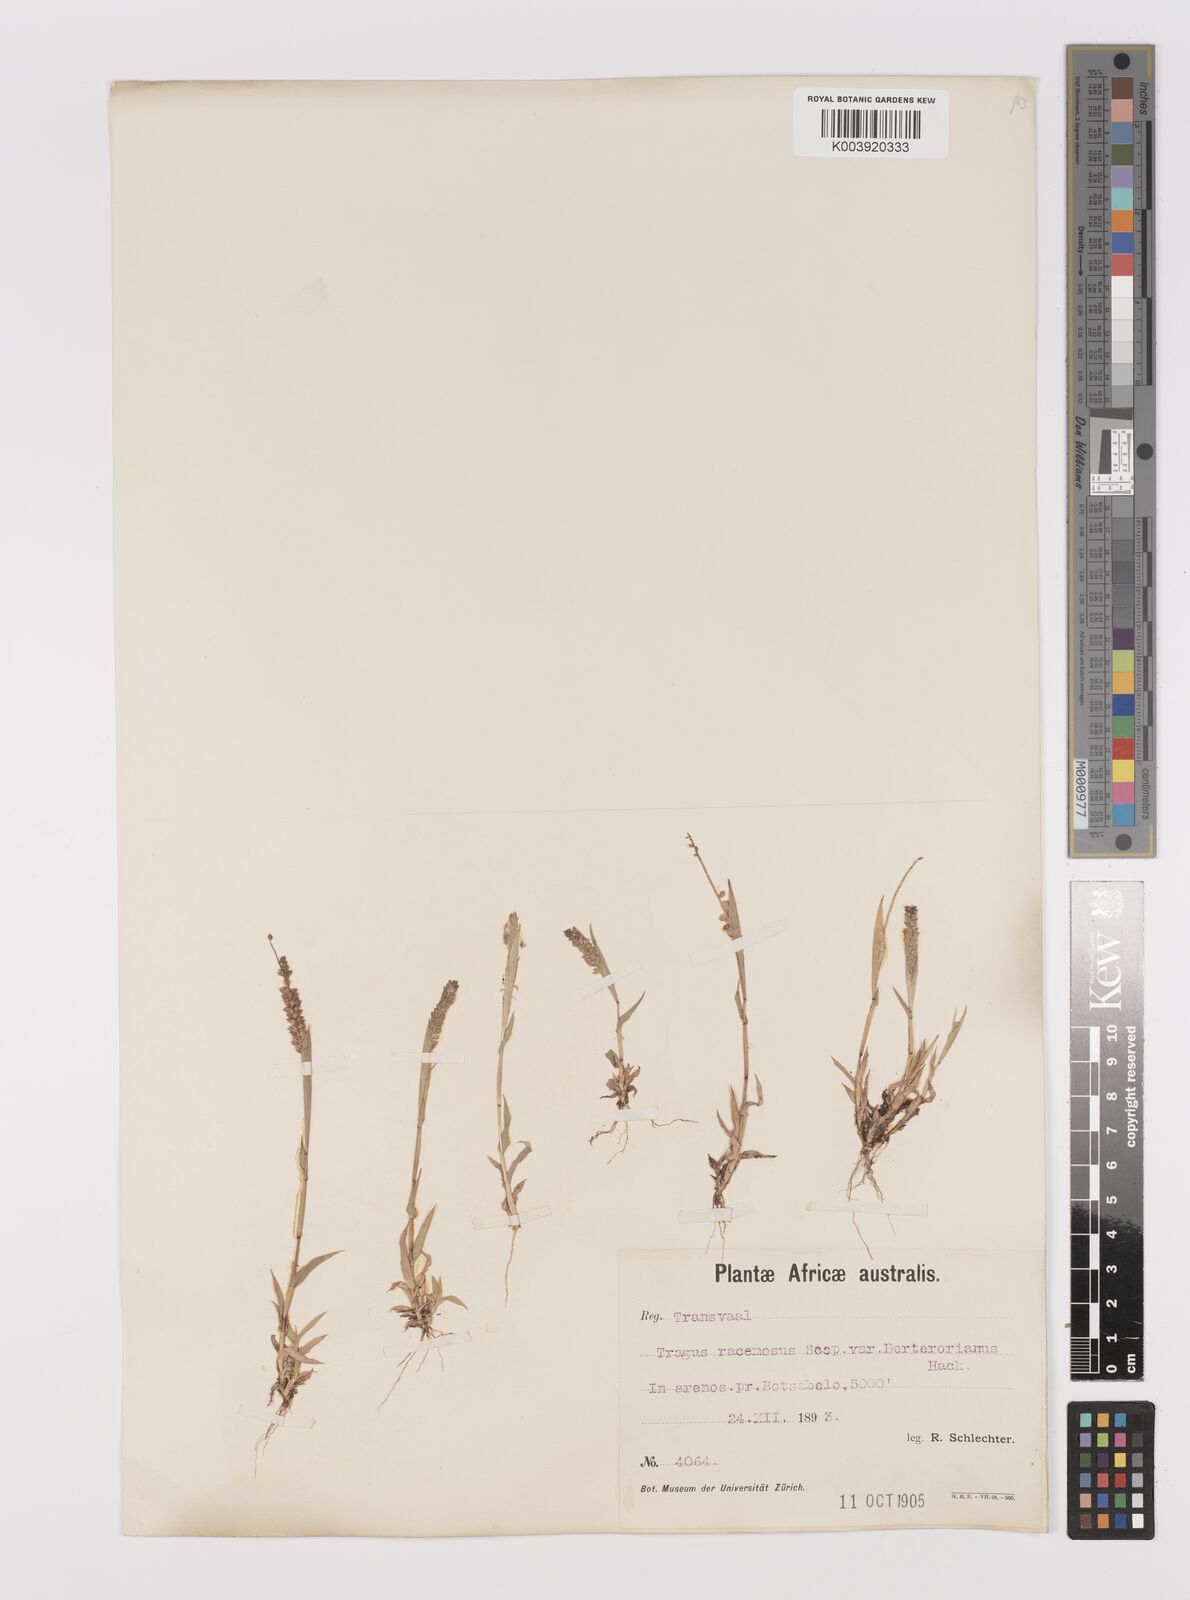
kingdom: Plantae
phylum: Tracheophyta
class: Liliopsida
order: Poales
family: Poaceae
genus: Tragus
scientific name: Tragus berteronianus
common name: African bur-grass
